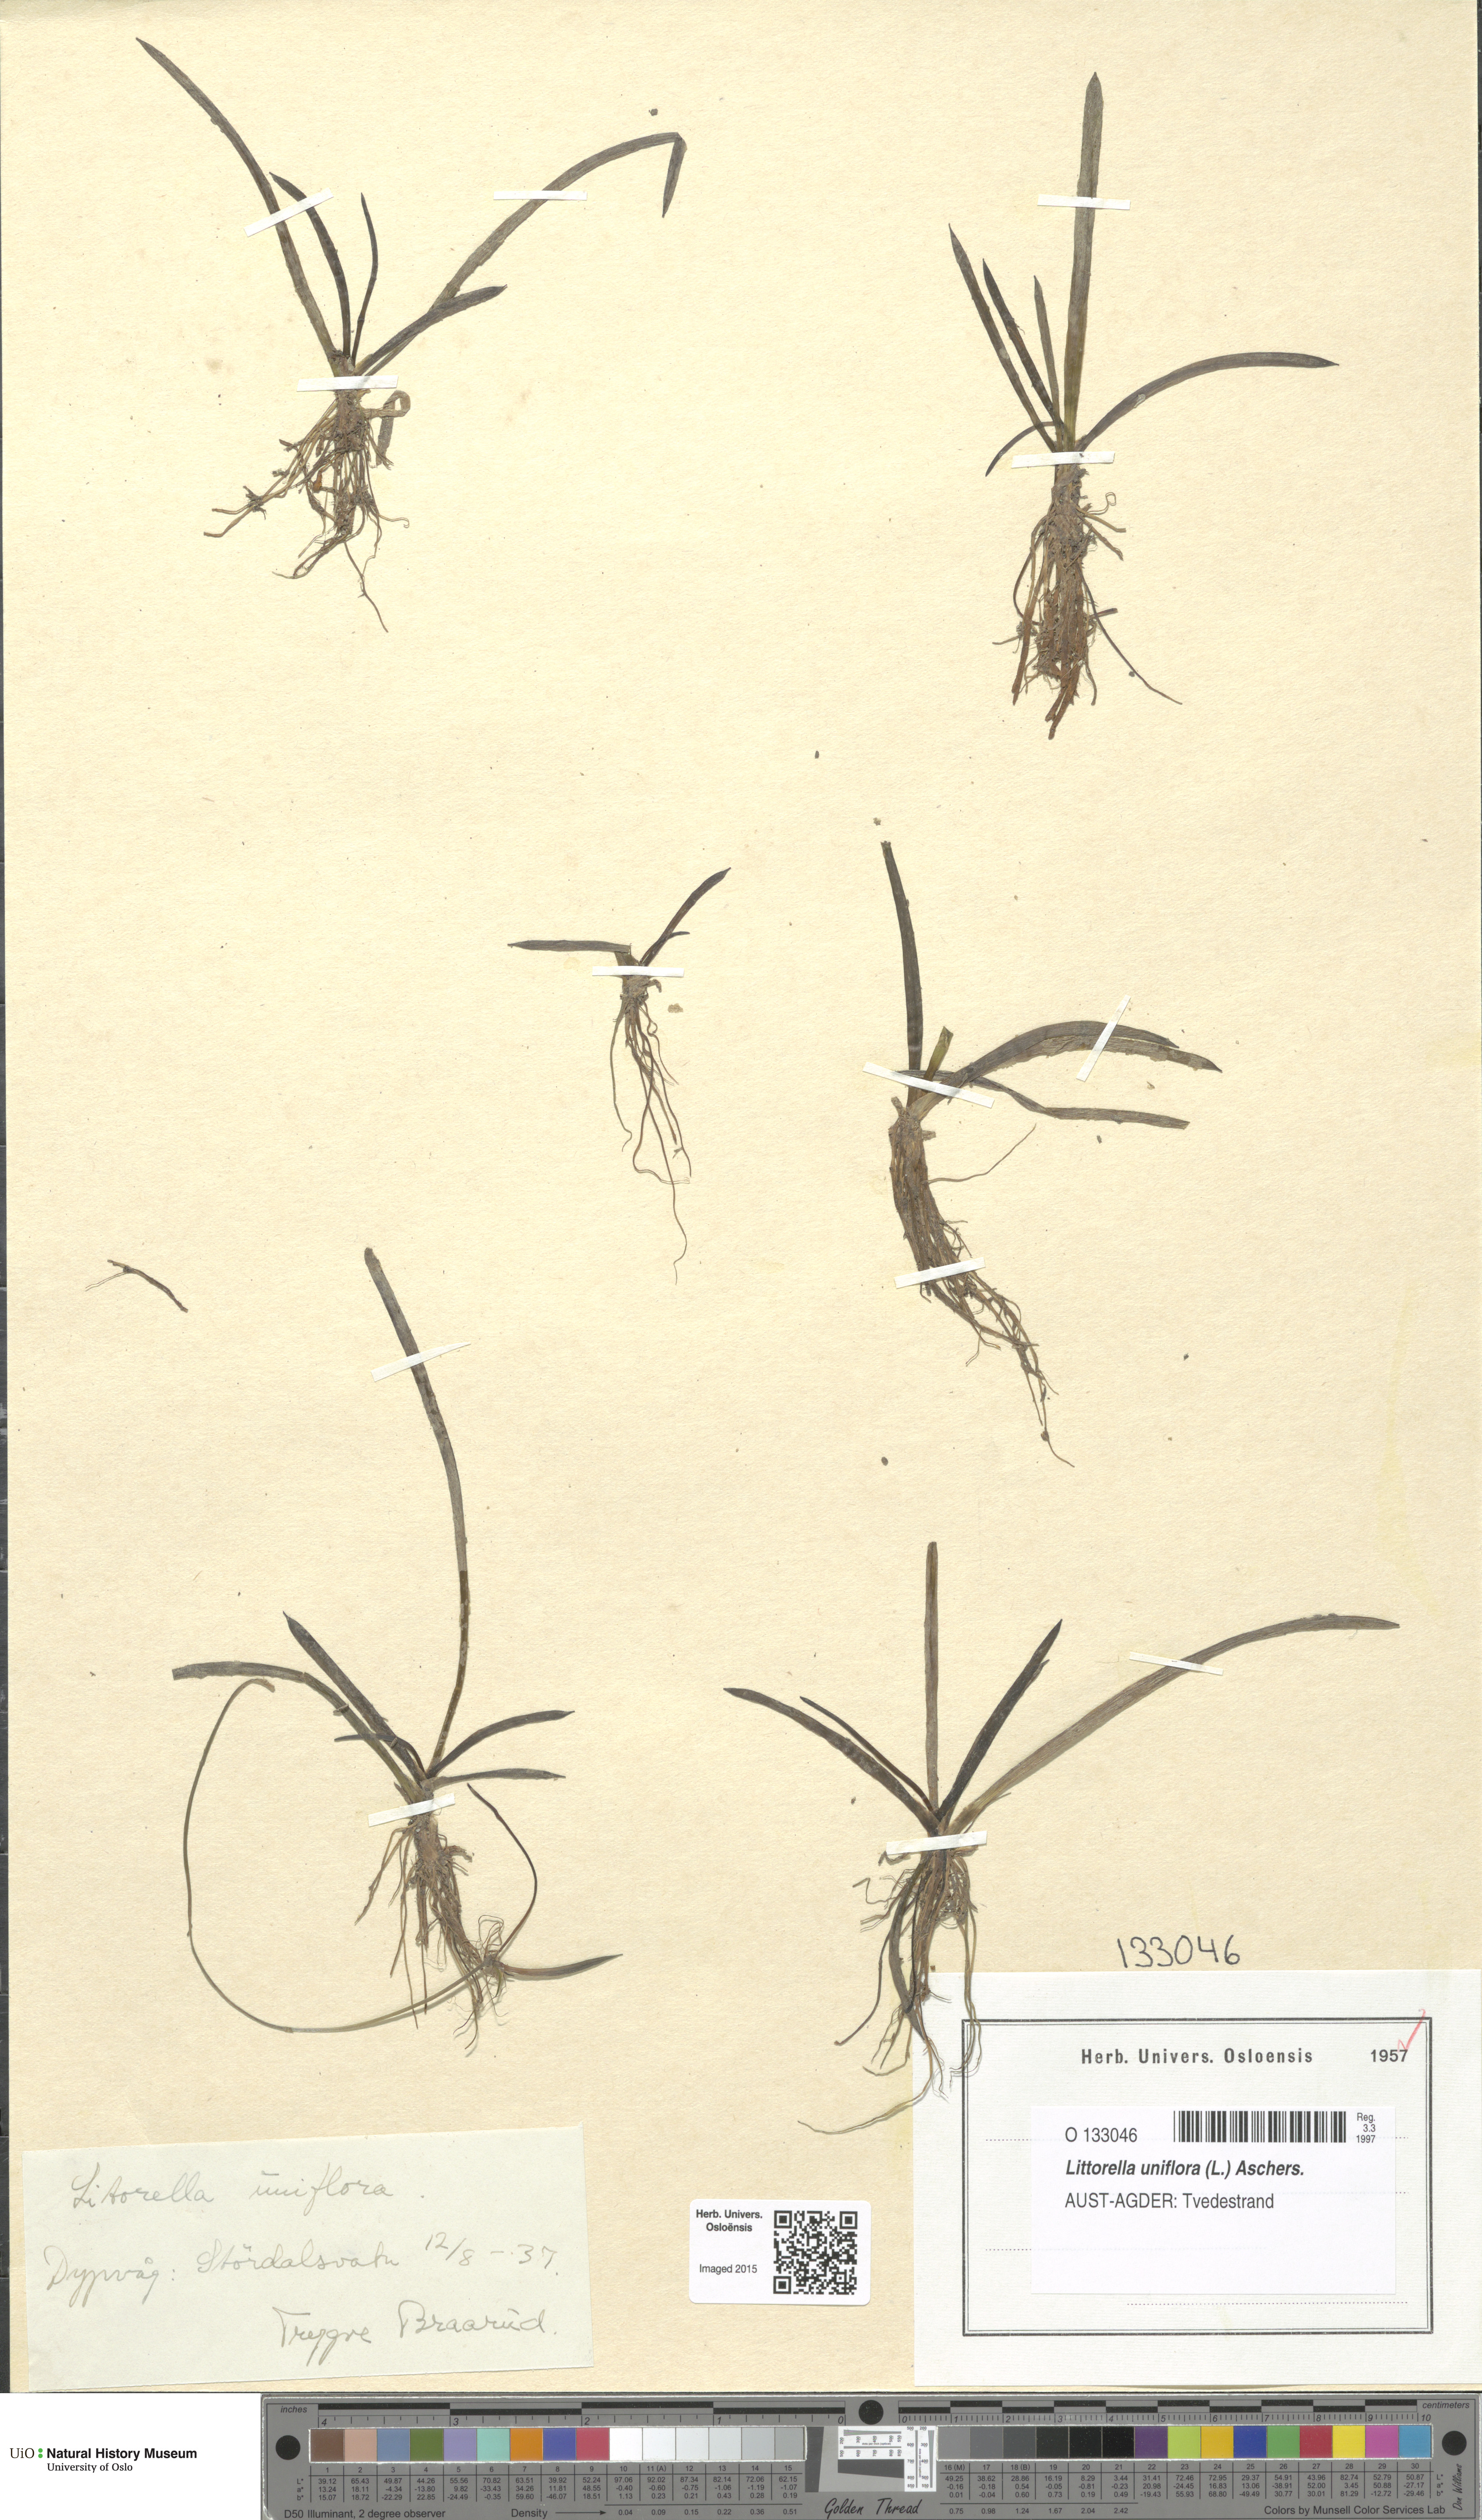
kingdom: Plantae
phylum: Tracheophyta
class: Magnoliopsida
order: Lamiales
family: Plantaginaceae
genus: Littorella
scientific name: Littorella uniflora
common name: Shoreweed
